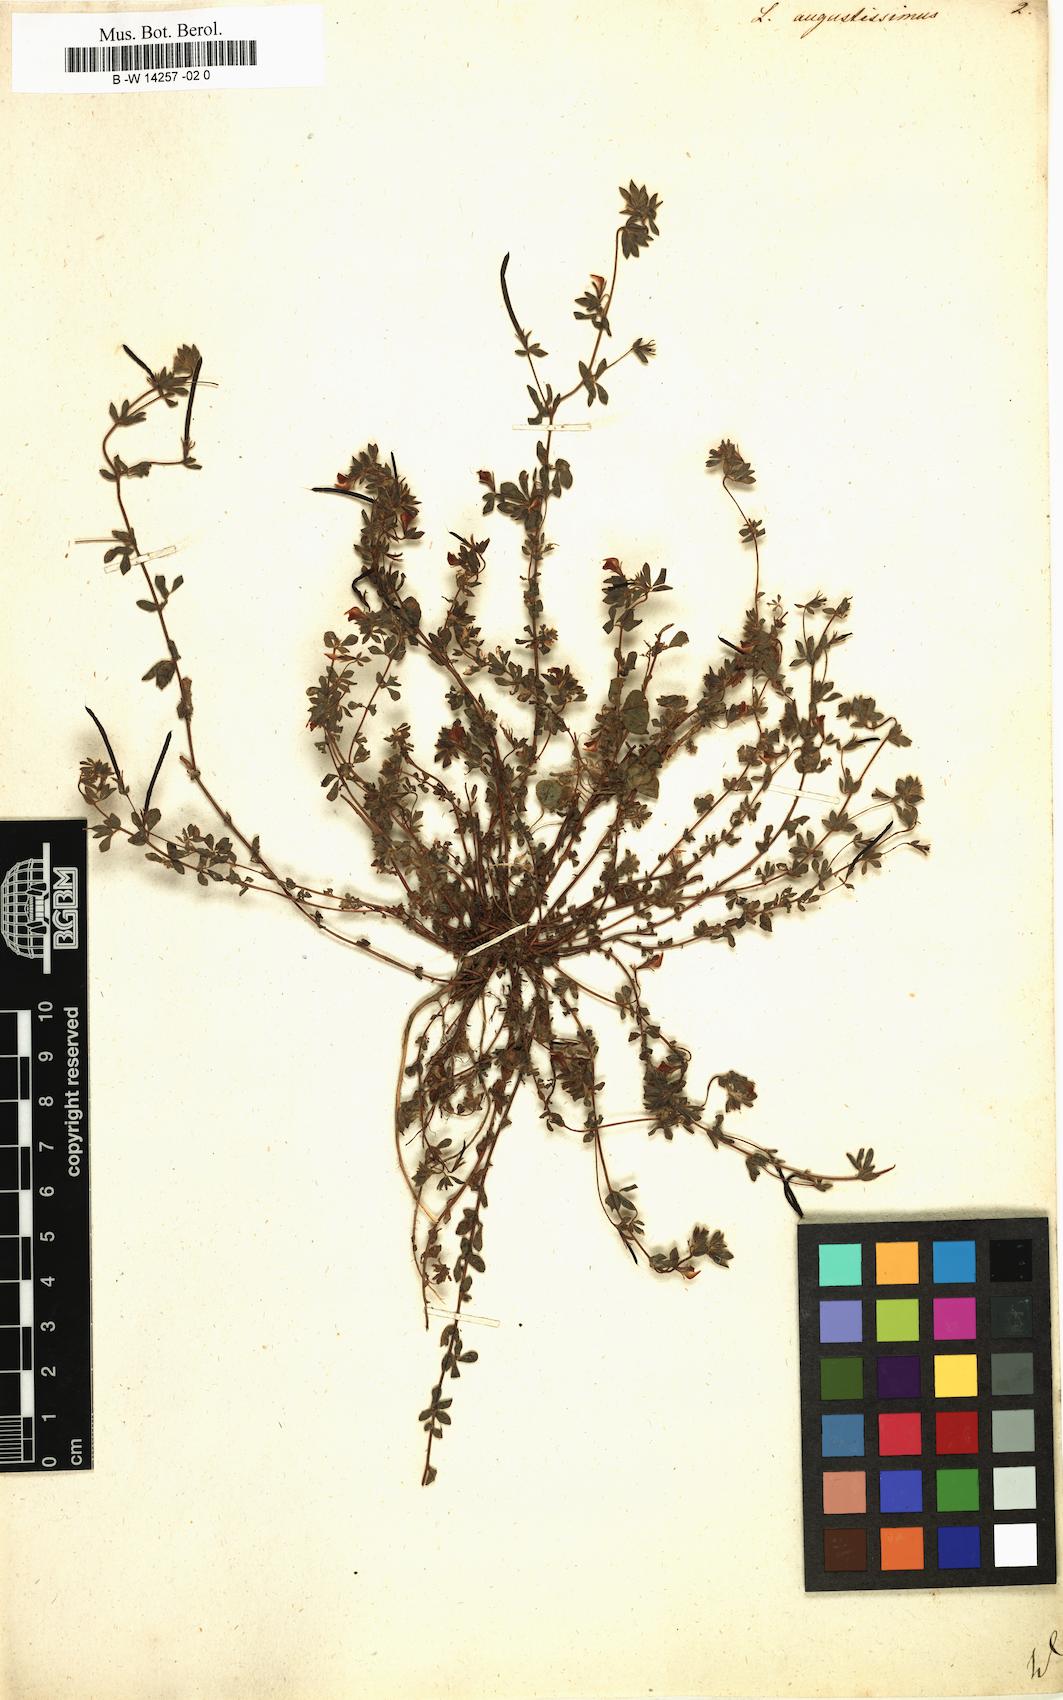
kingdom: Plantae
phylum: Tracheophyta
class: Magnoliopsida
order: Fabales
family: Fabaceae
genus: Lotus
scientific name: Lotus angustissimus
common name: Slender bird's-foot trefoil
